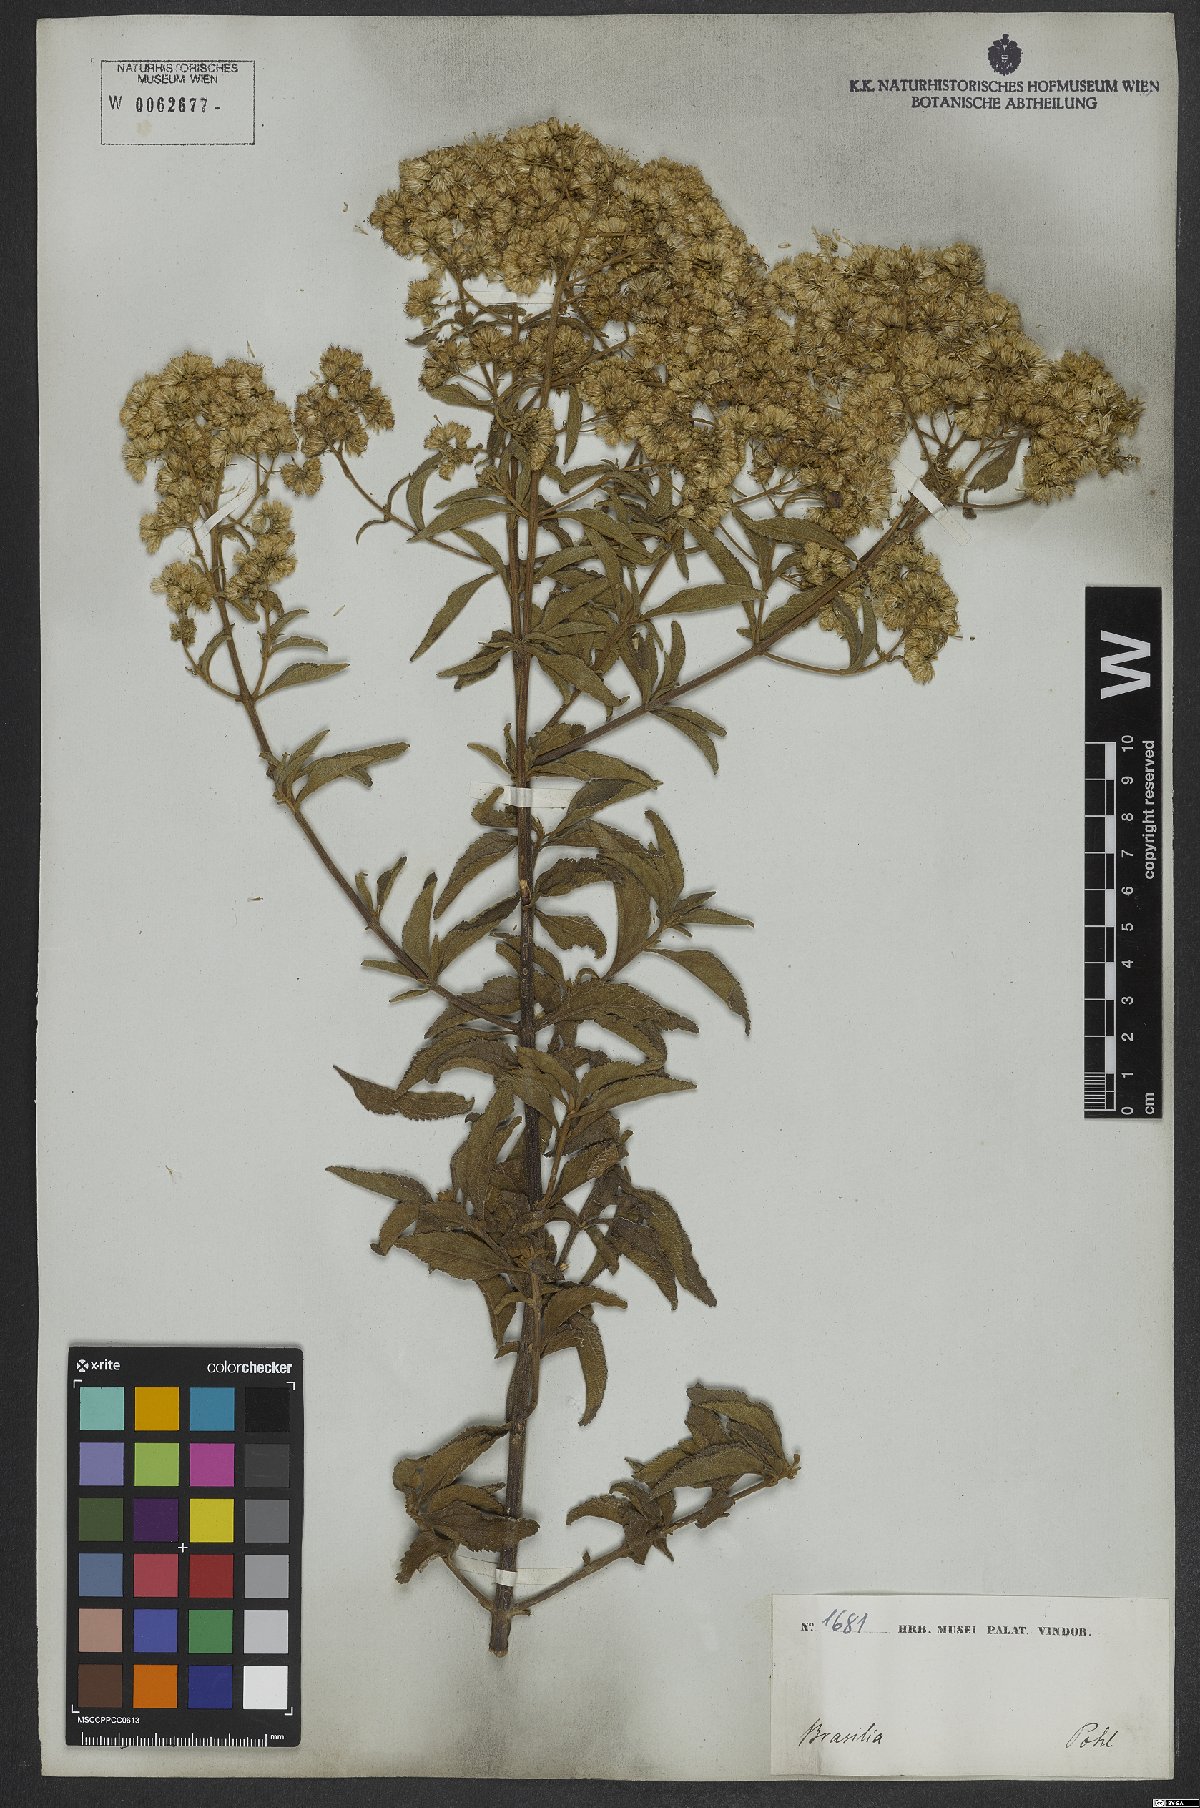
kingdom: Plantae
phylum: Tracheophyta
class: Magnoliopsida
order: Asterales
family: Asteraceae
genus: Austroeupatorium
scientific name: Austroeupatorium silphiifolium
